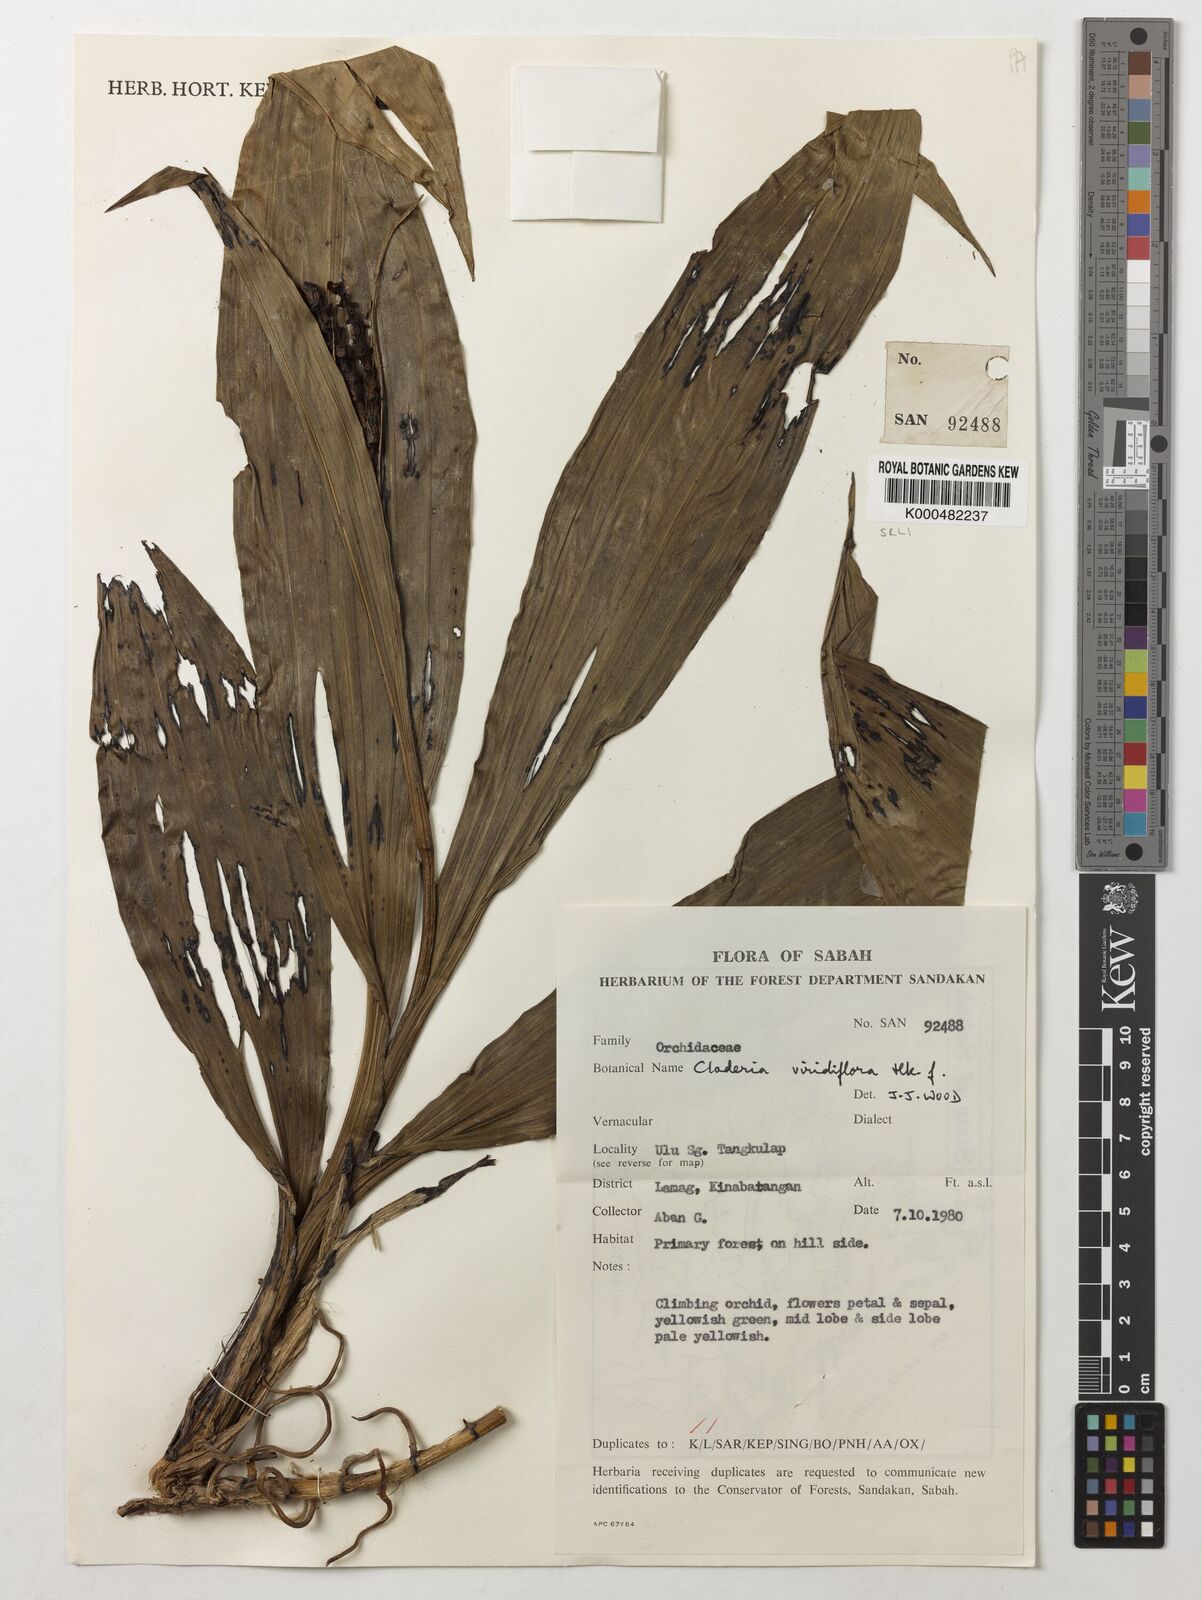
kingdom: Plantae
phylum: Tracheophyta
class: Liliopsida
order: Asparagales
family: Orchidaceae
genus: Claderia
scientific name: Claderia
